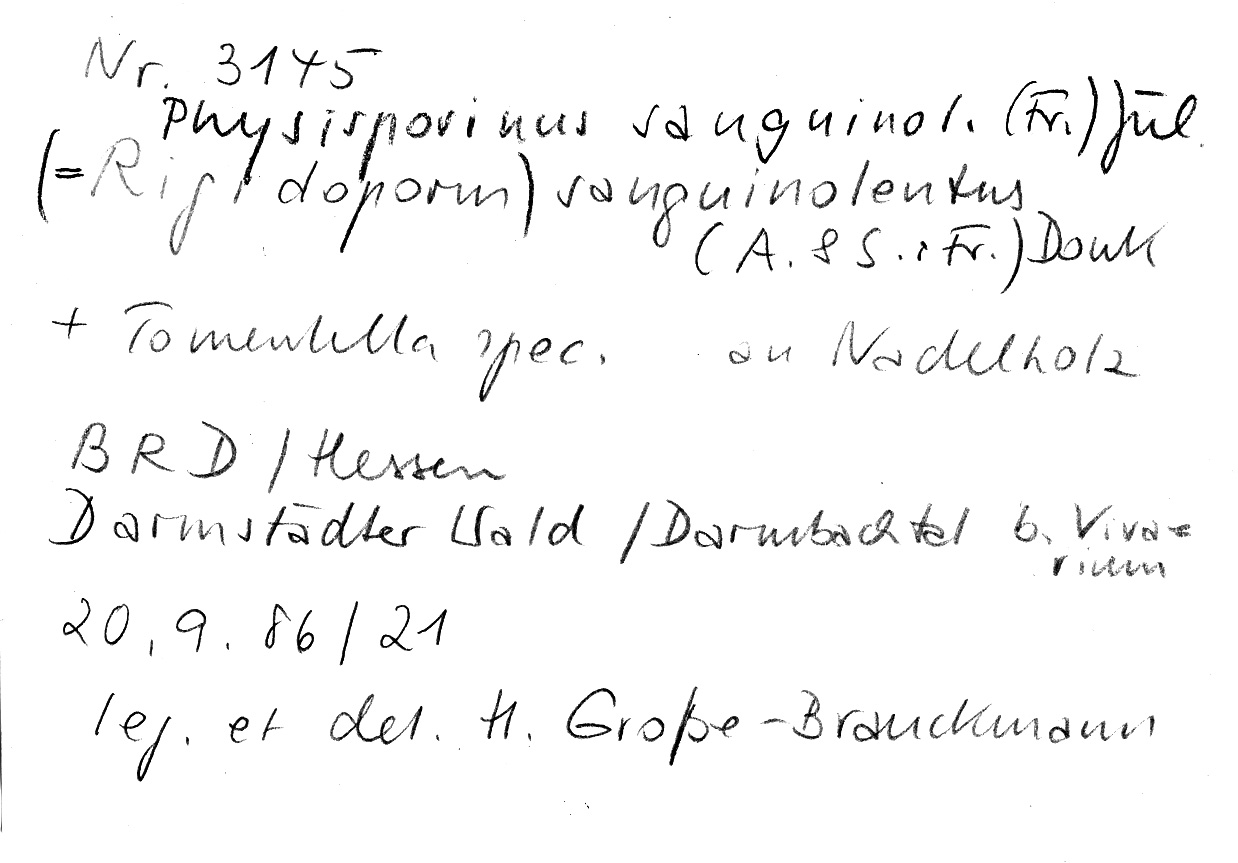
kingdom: Fungi
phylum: Basidiomycota
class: Agaricomycetes
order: Polyporales
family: Meripilaceae
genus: Rigidoporus
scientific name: Rigidoporus sanguinolentus
